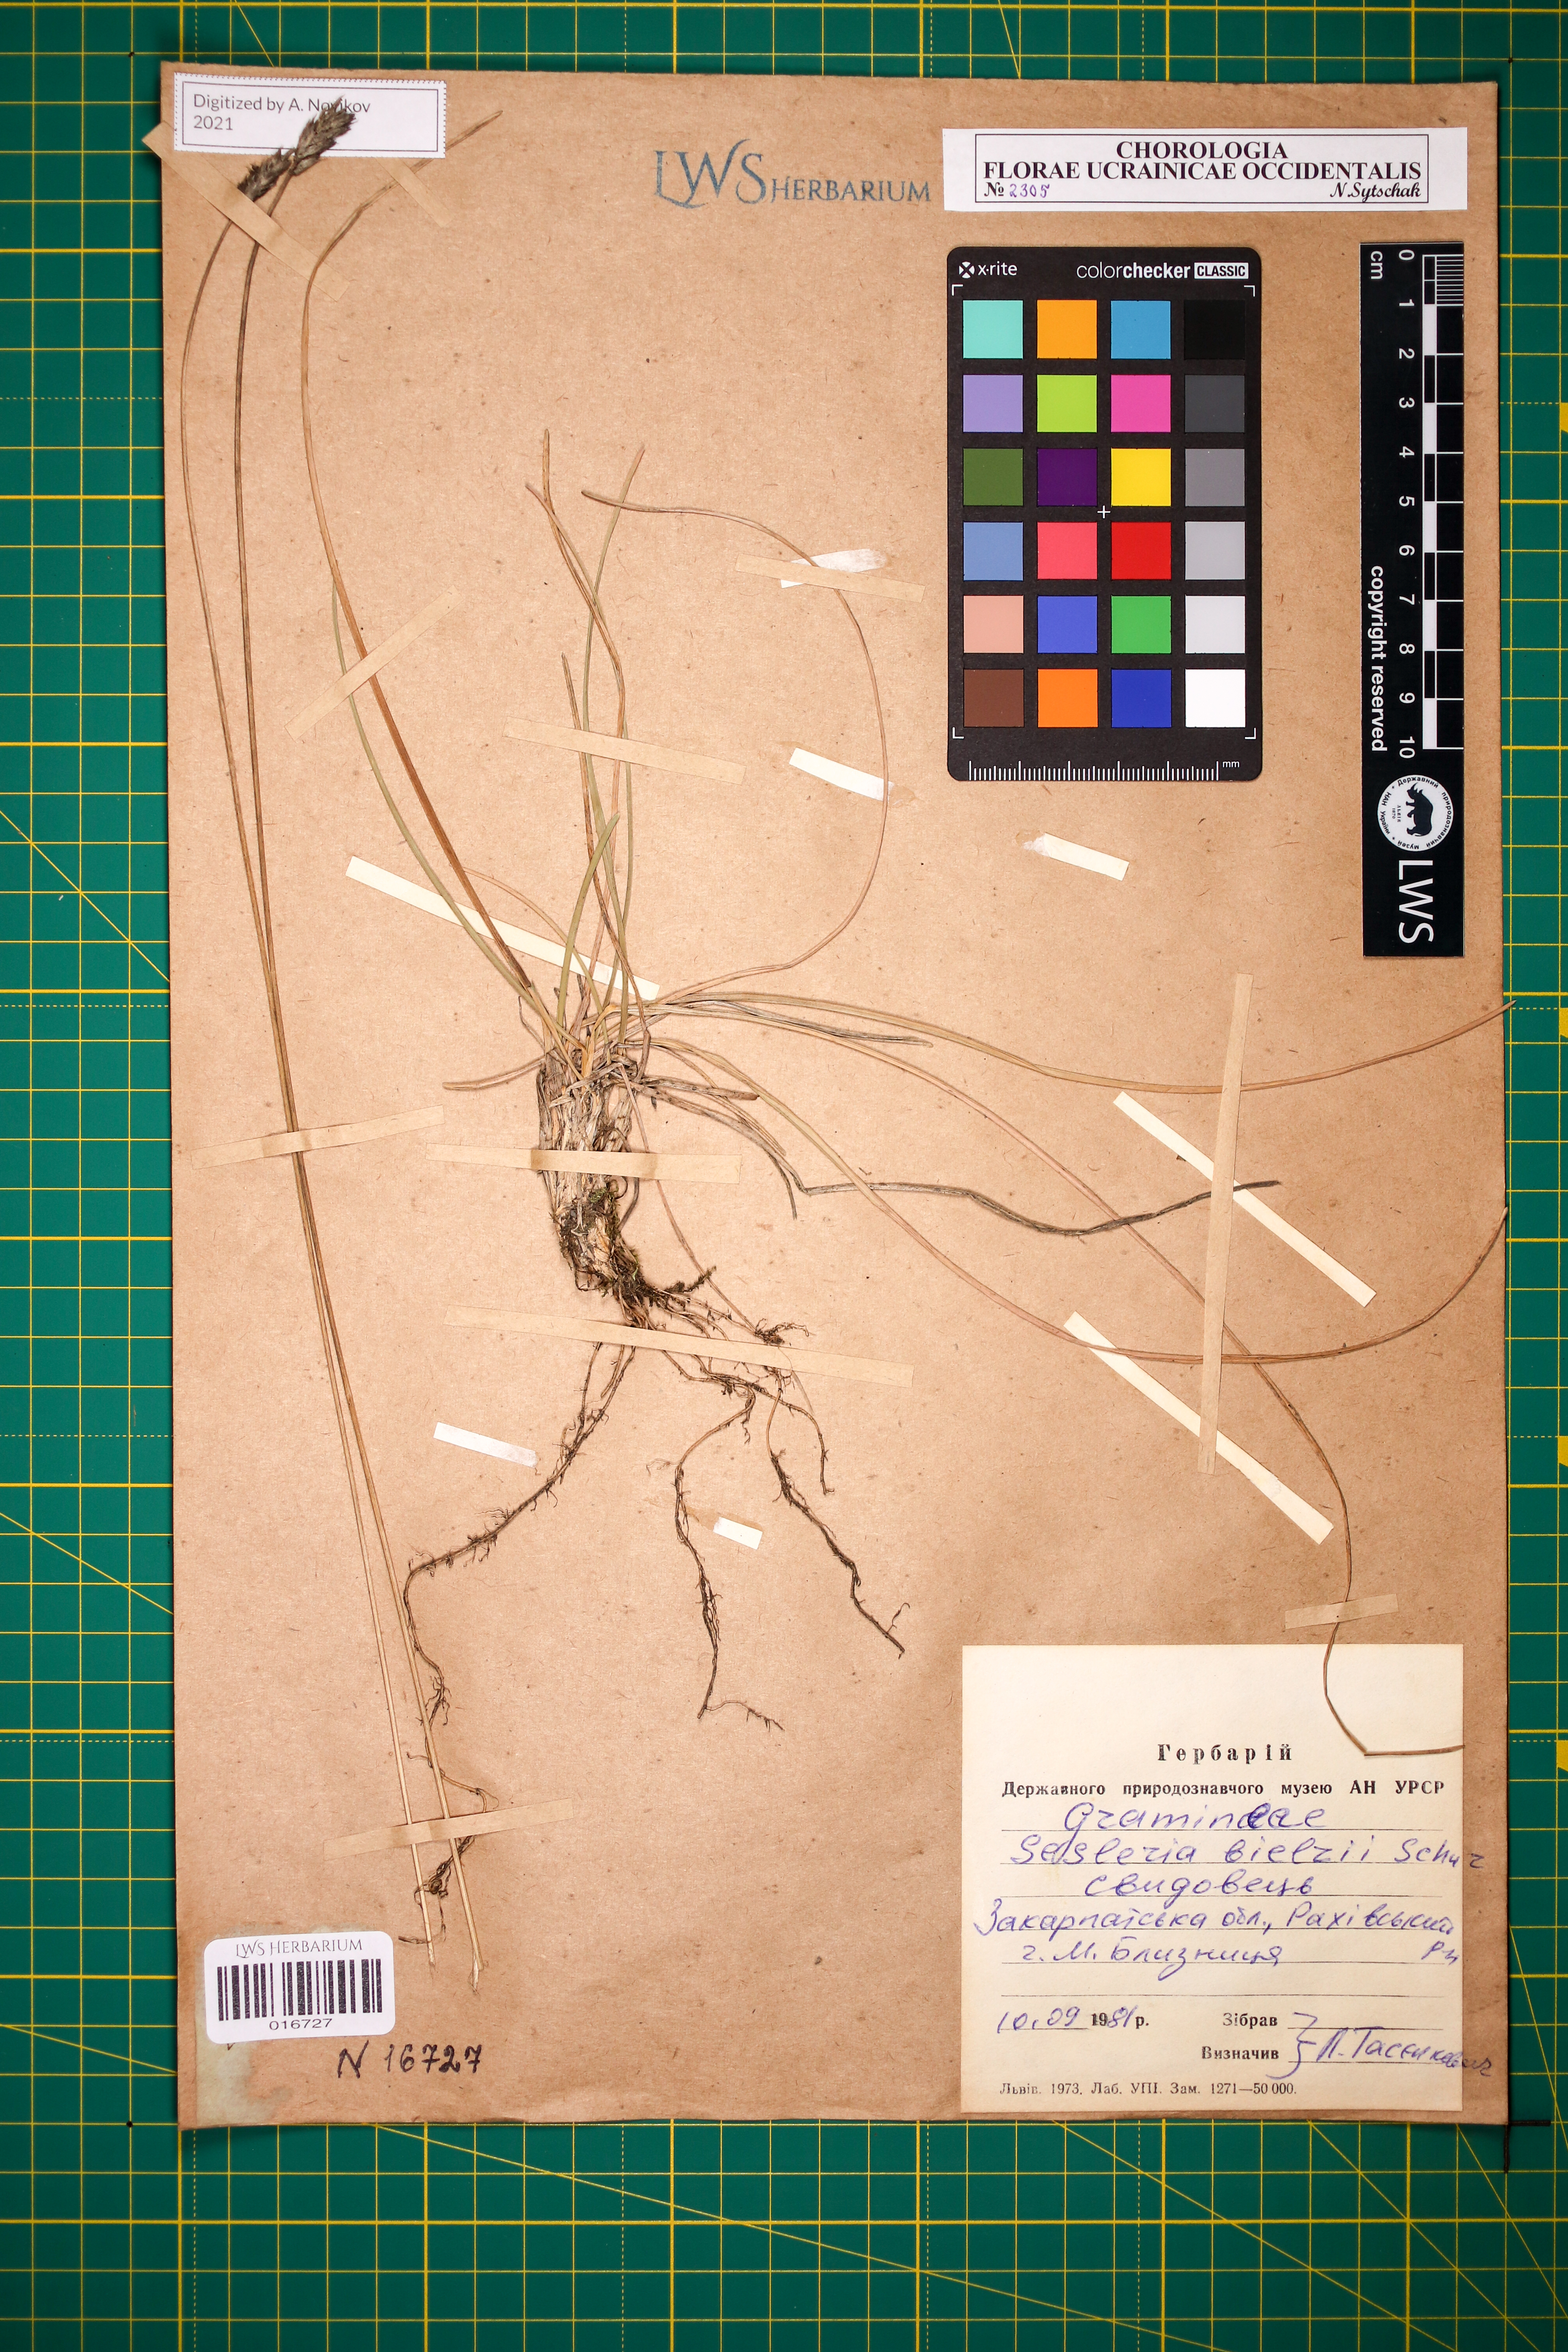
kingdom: Plantae
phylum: Tracheophyta
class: Liliopsida
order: Poales
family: Poaceae
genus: Sesleria
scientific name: Sesleria bielzii
